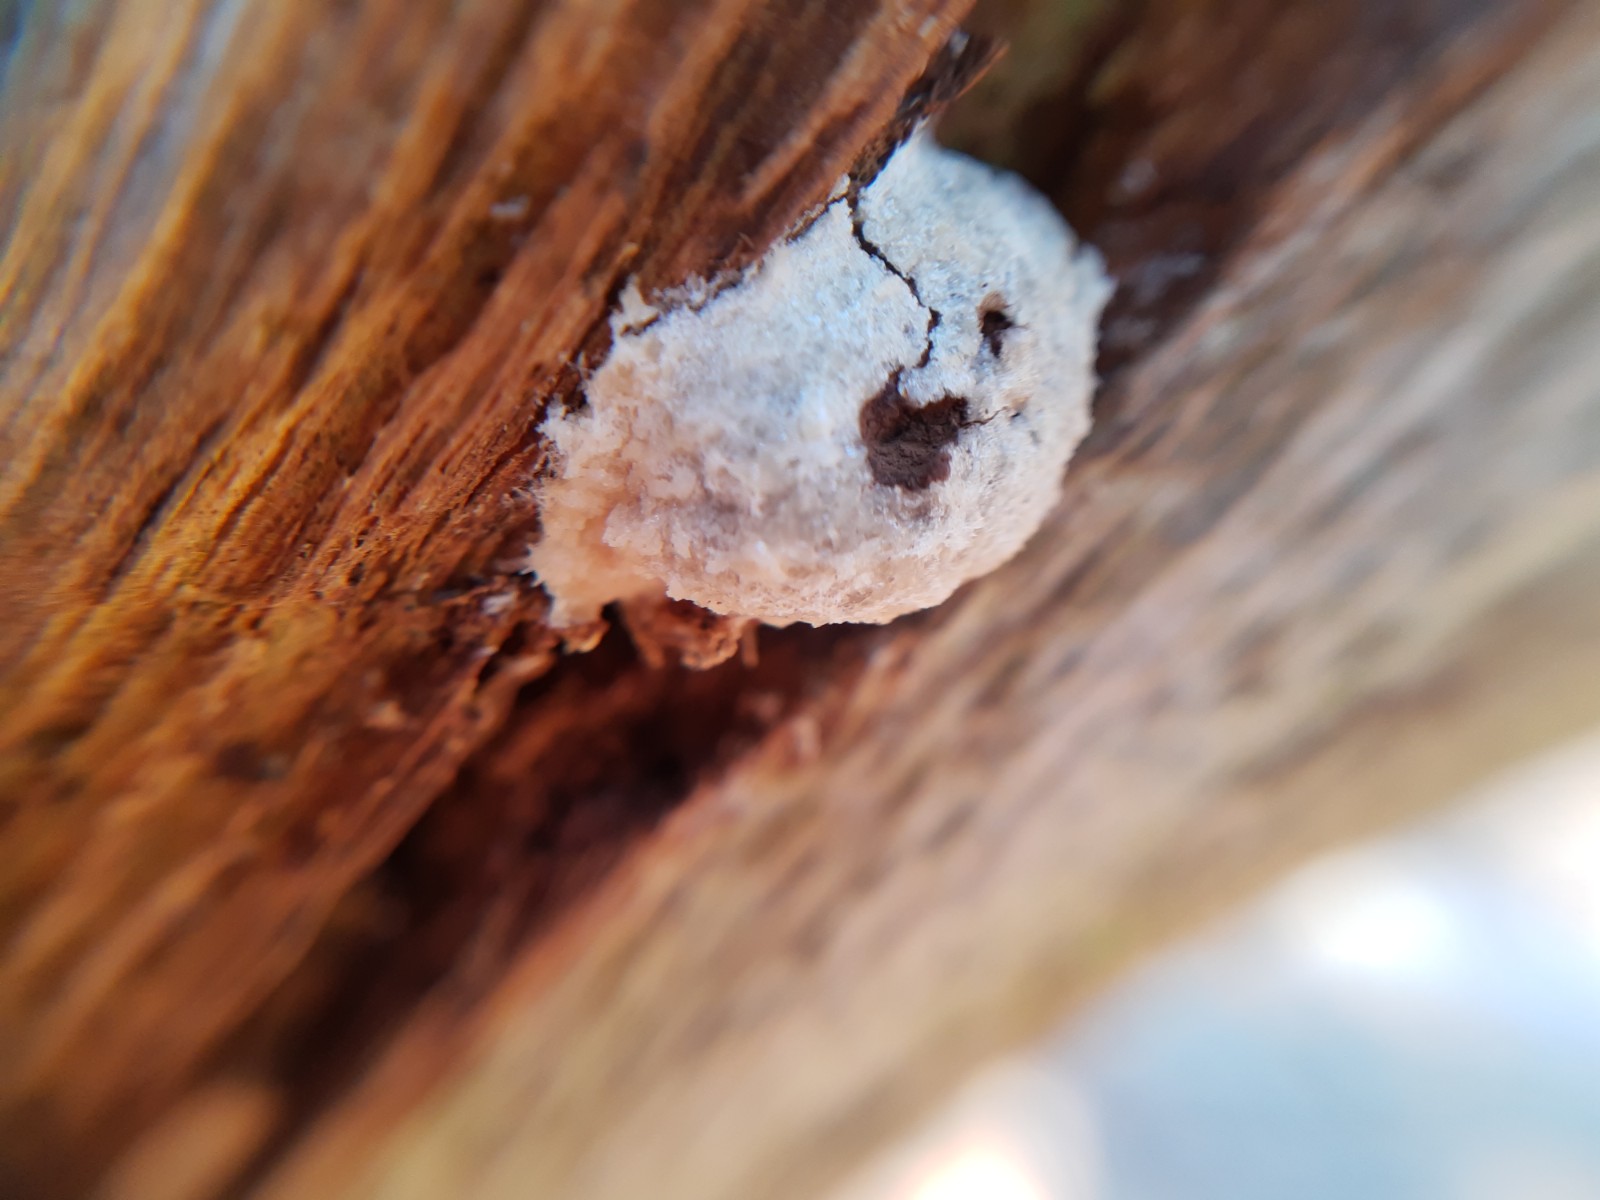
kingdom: Protozoa
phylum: Mycetozoa
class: Myxomycetes
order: Cribrariales
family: Tubiferaceae
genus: Reticularia
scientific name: Reticularia
